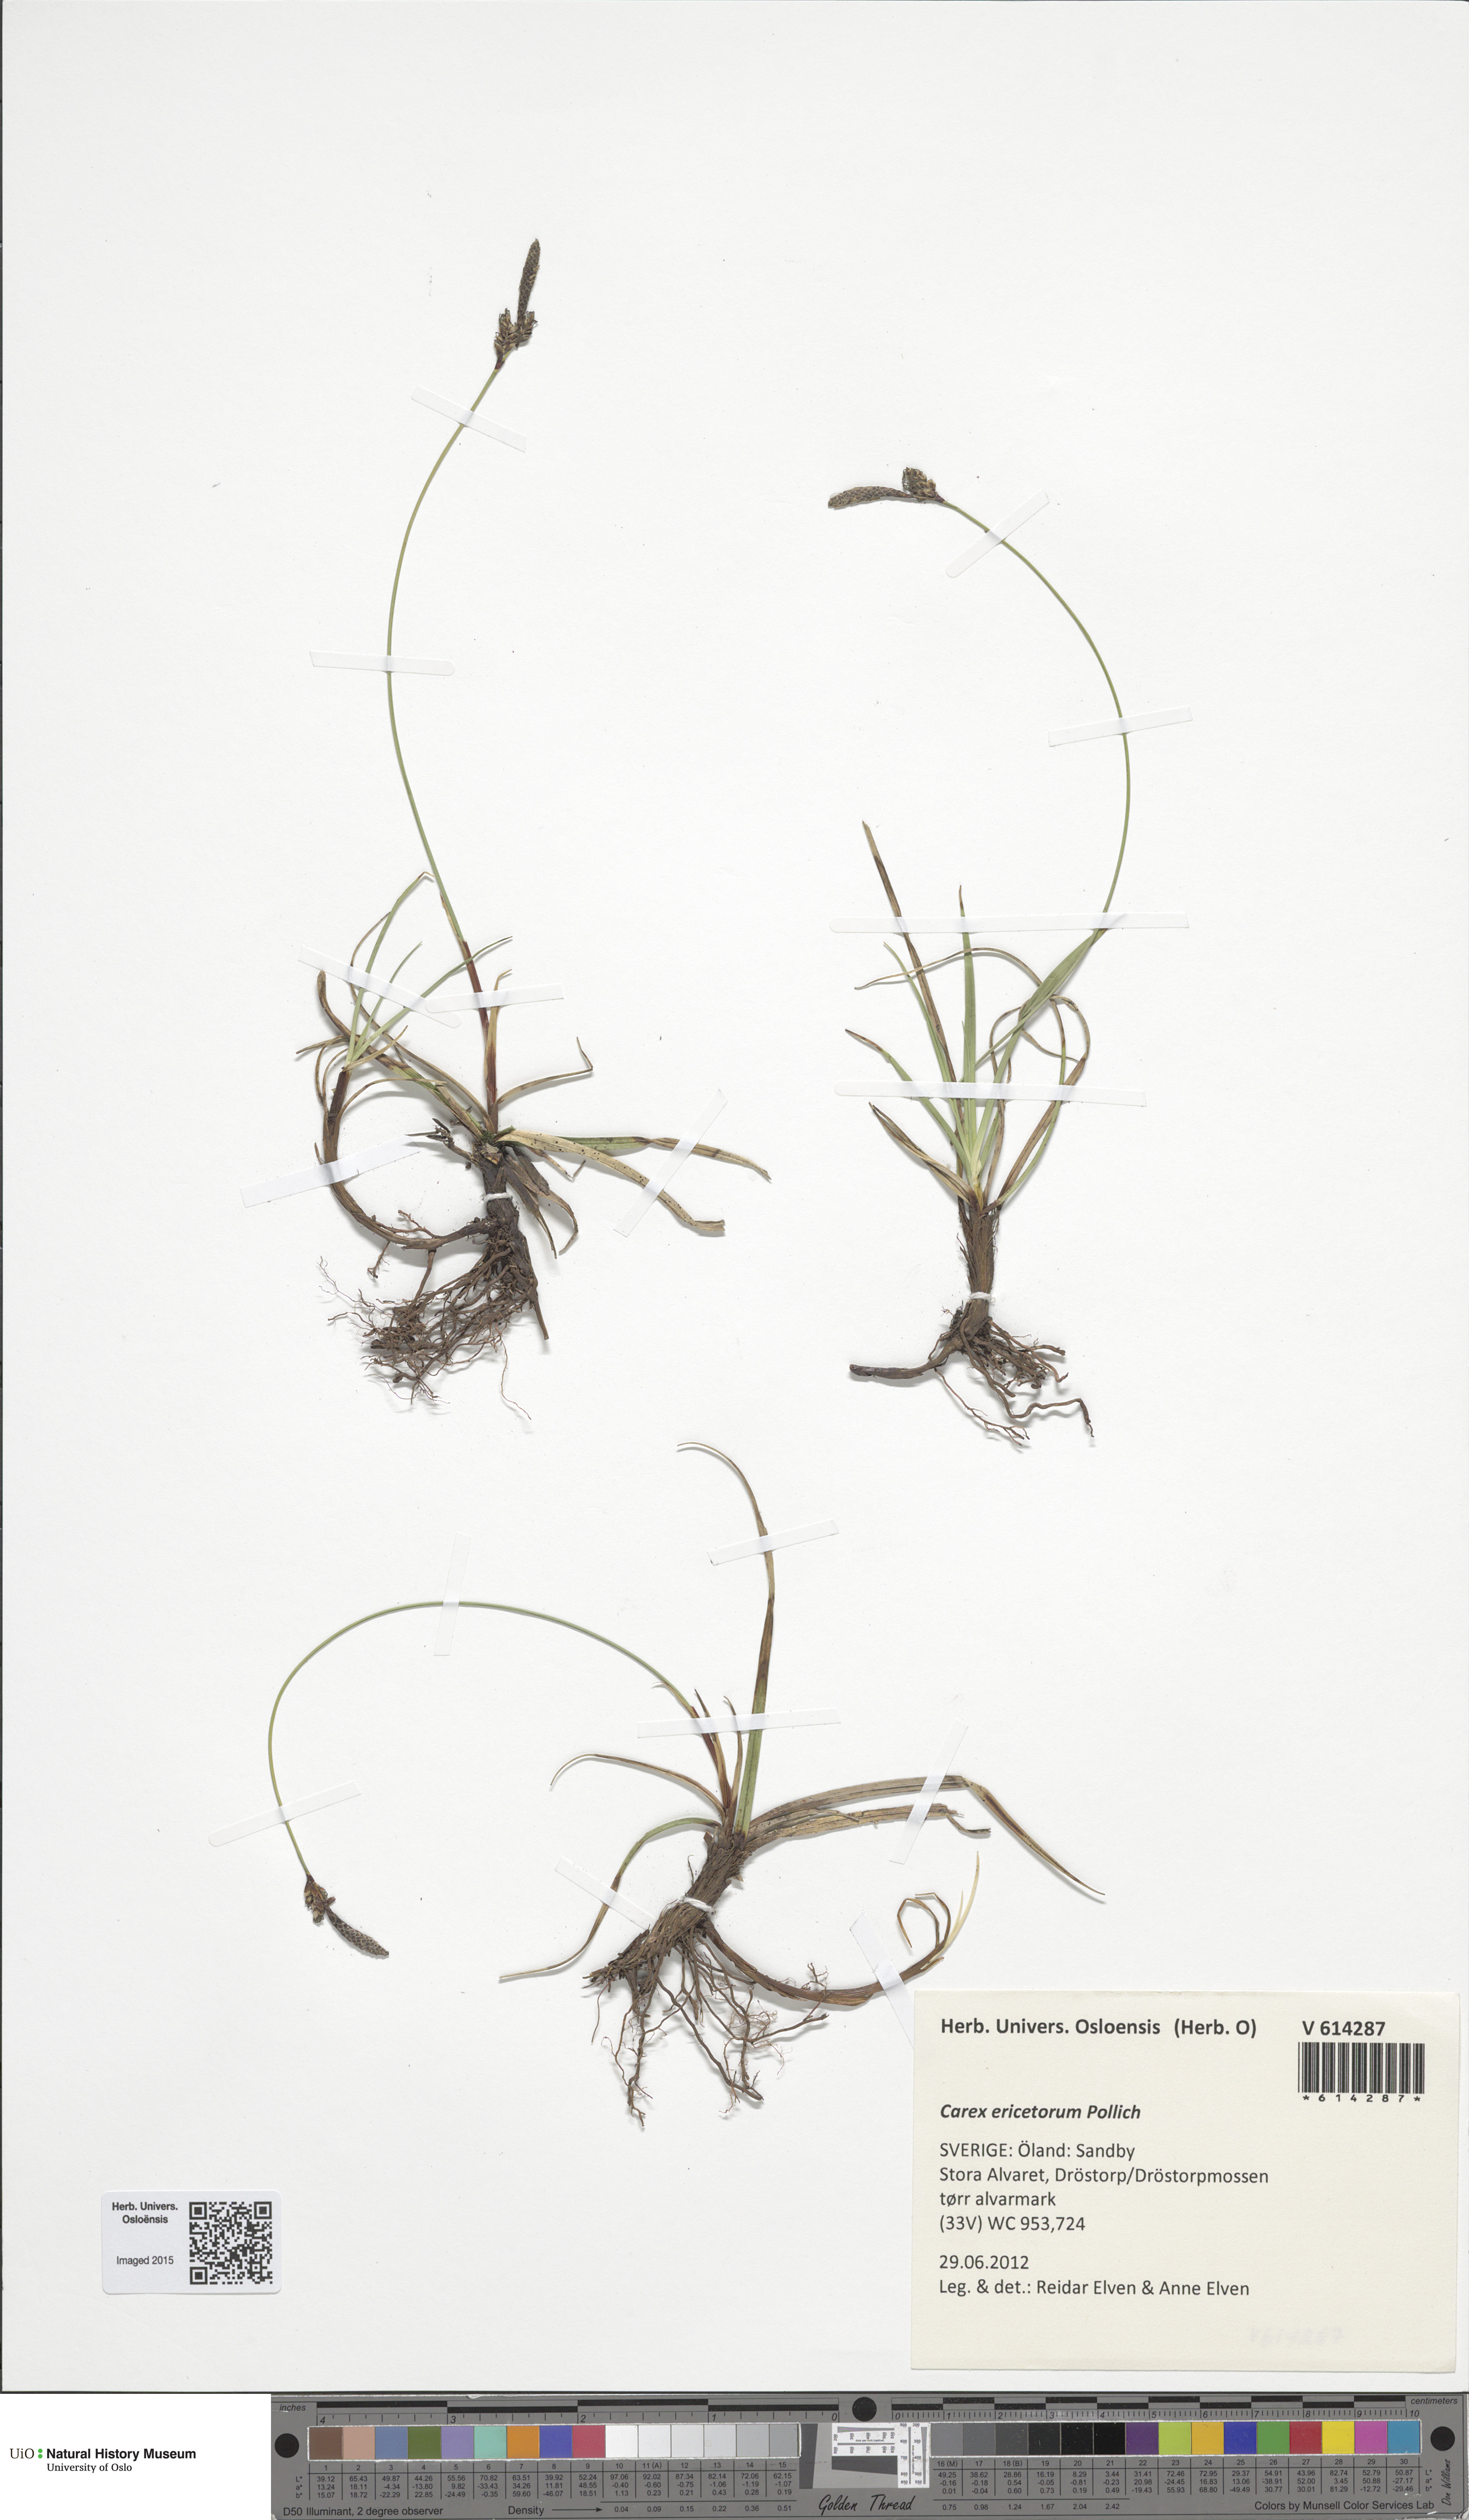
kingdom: Plantae
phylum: Tracheophyta
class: Liliopsida
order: Poales
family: Cyperaceae
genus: Carex
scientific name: Carex ericetorum
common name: Rare spring-sedge
